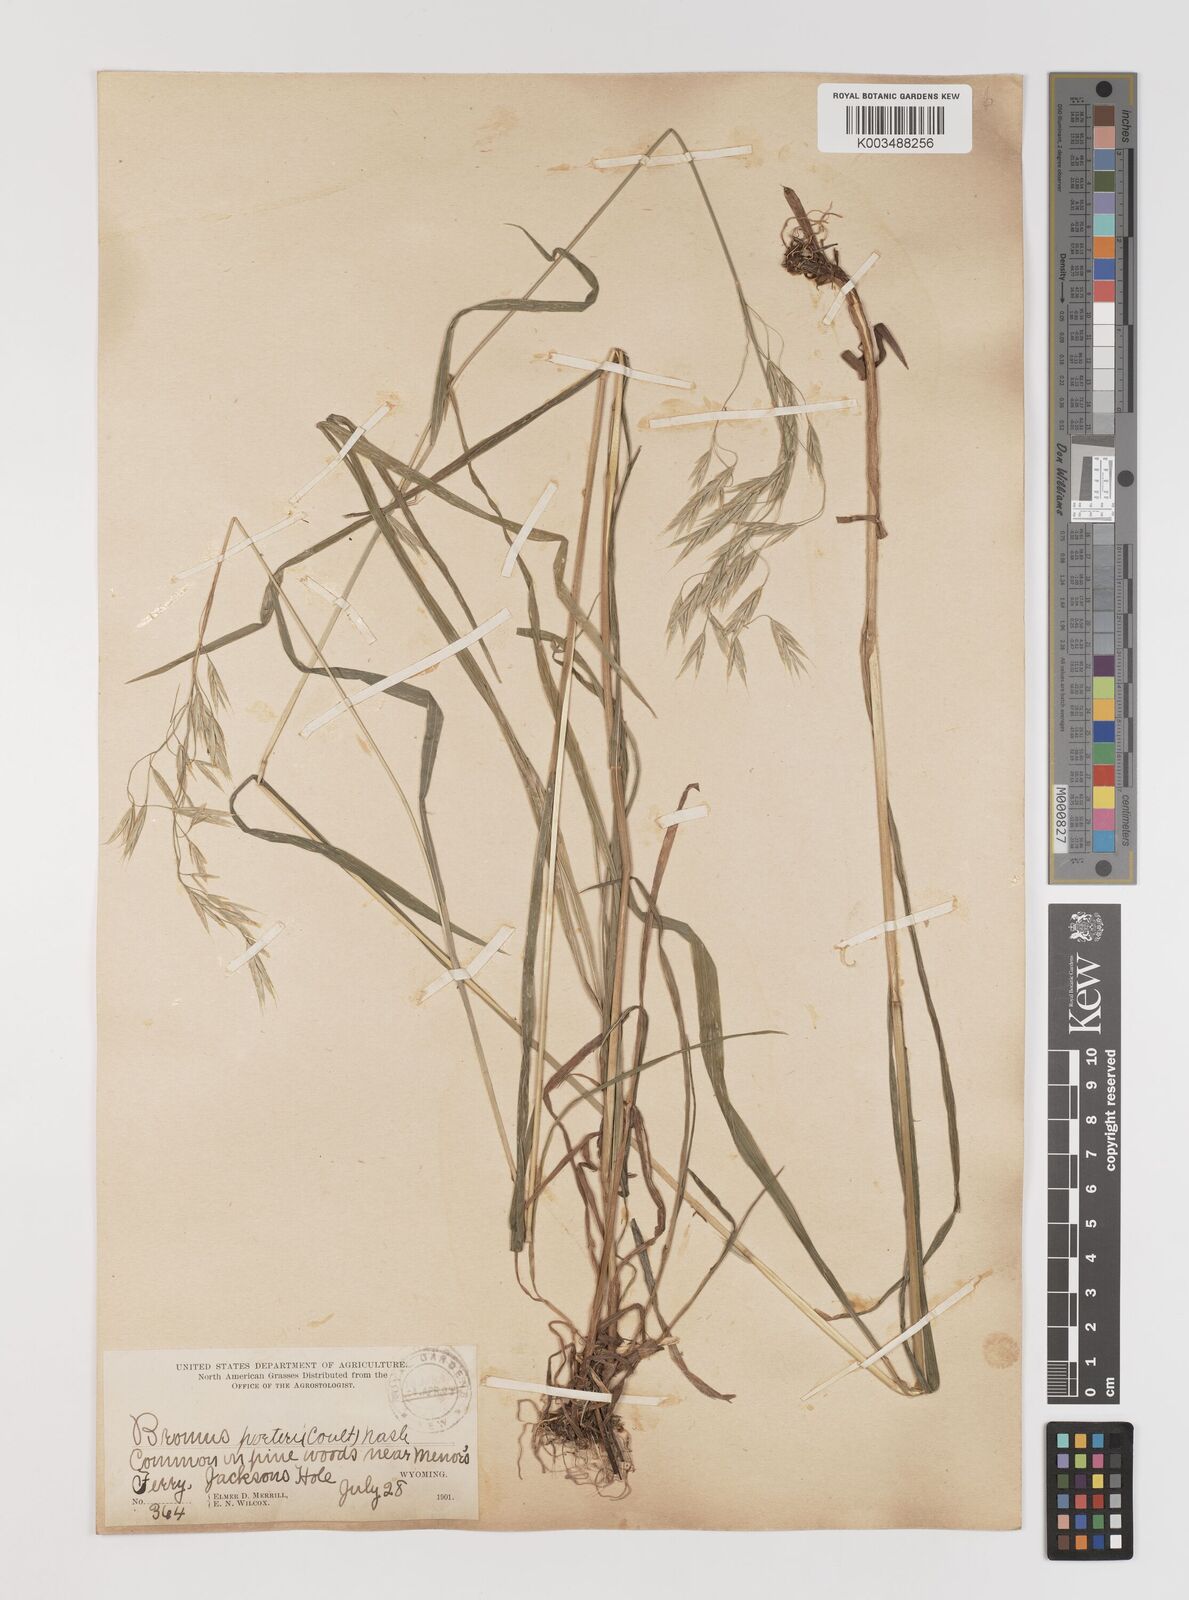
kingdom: Plantae
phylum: Tracheophyta
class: Liliopsida
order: Poales
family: Poaceae
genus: Bromus
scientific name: Bromus porteri
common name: Nodding brome
